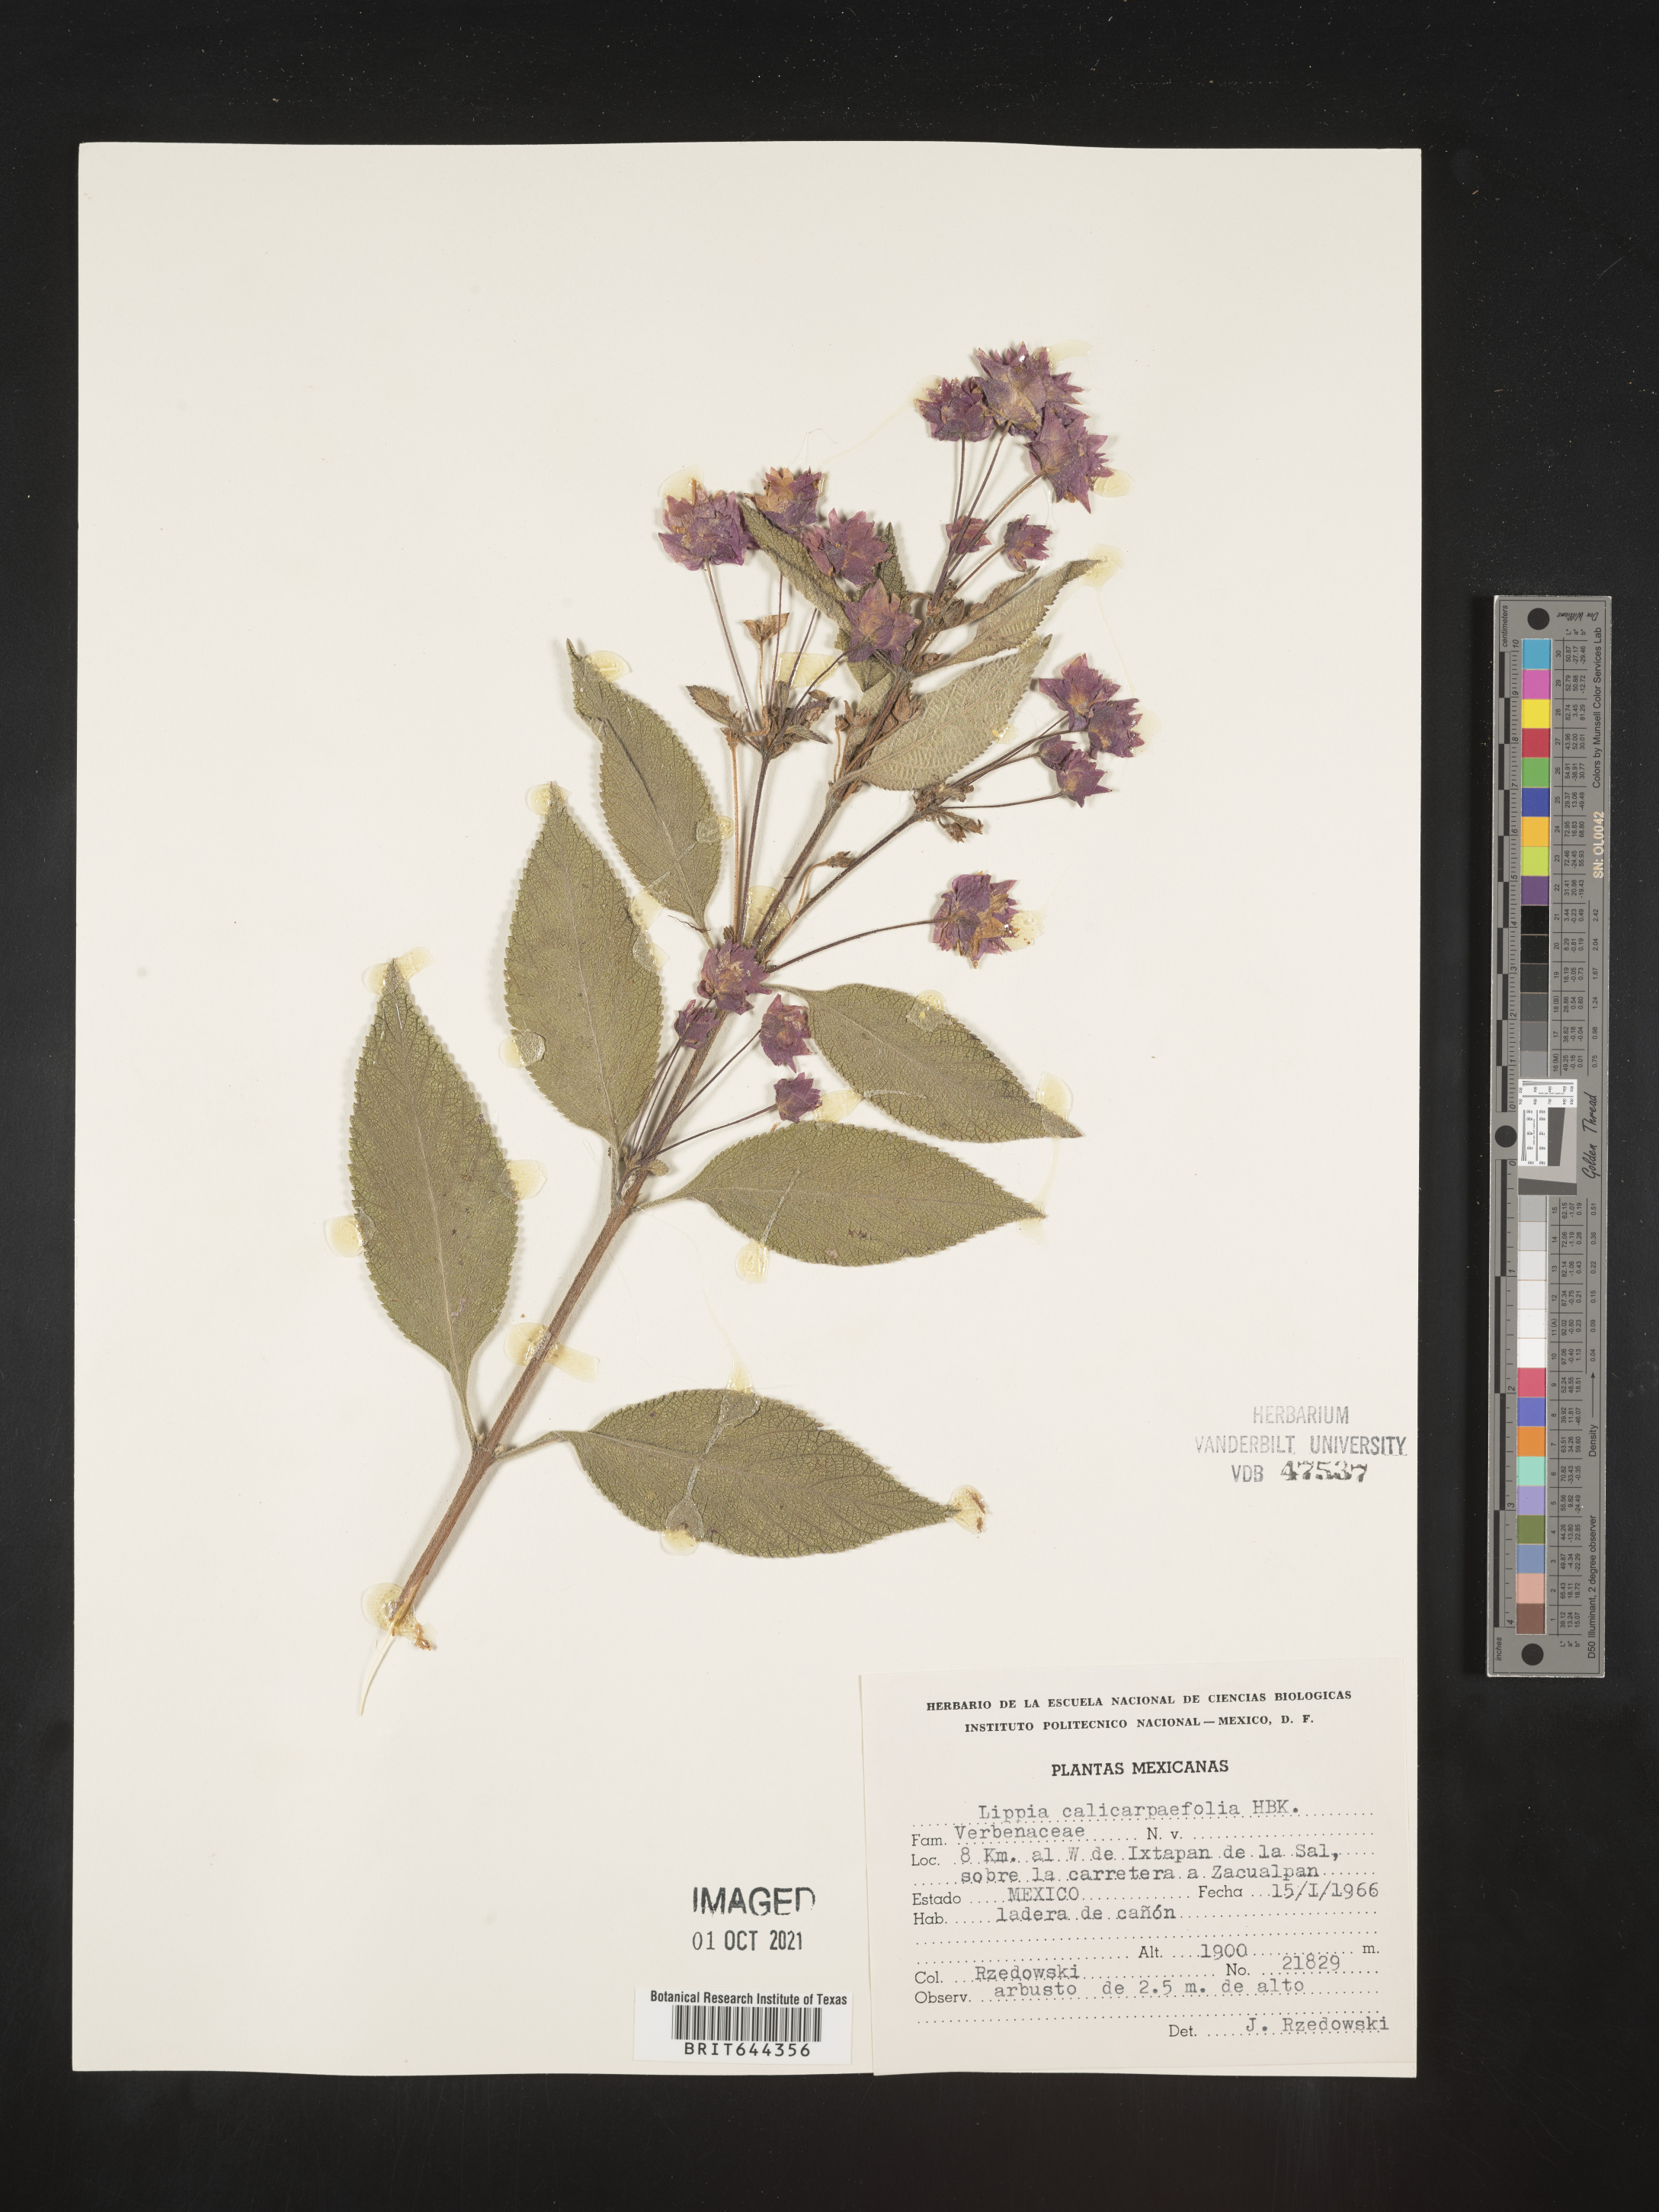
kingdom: Plantae
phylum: Tracheophyta
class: Magnoliopsida
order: Lamiales
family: Verbenaceae
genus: Lippia
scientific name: Lippia
